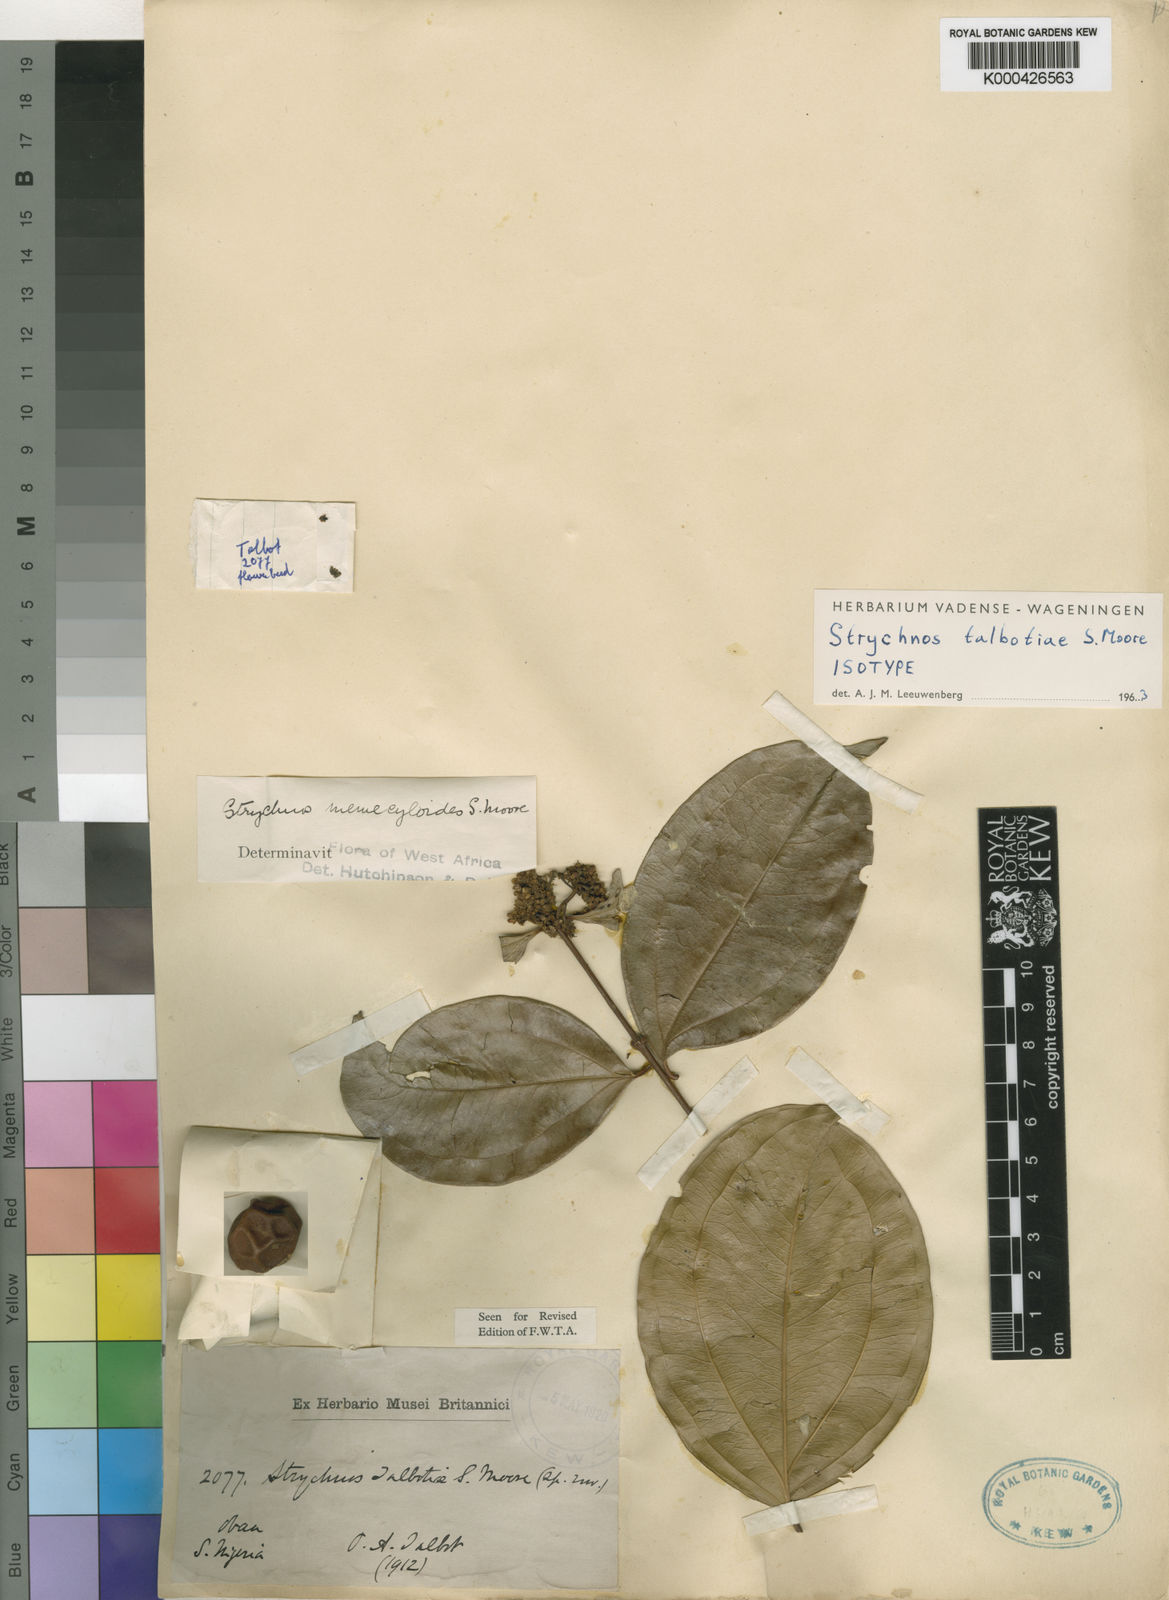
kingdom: Plantae
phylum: Tracheophyta
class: Magnoliopsida
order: Gentianales
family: Loganiaceae
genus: Strychnos
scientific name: Strychnos talbotiae
